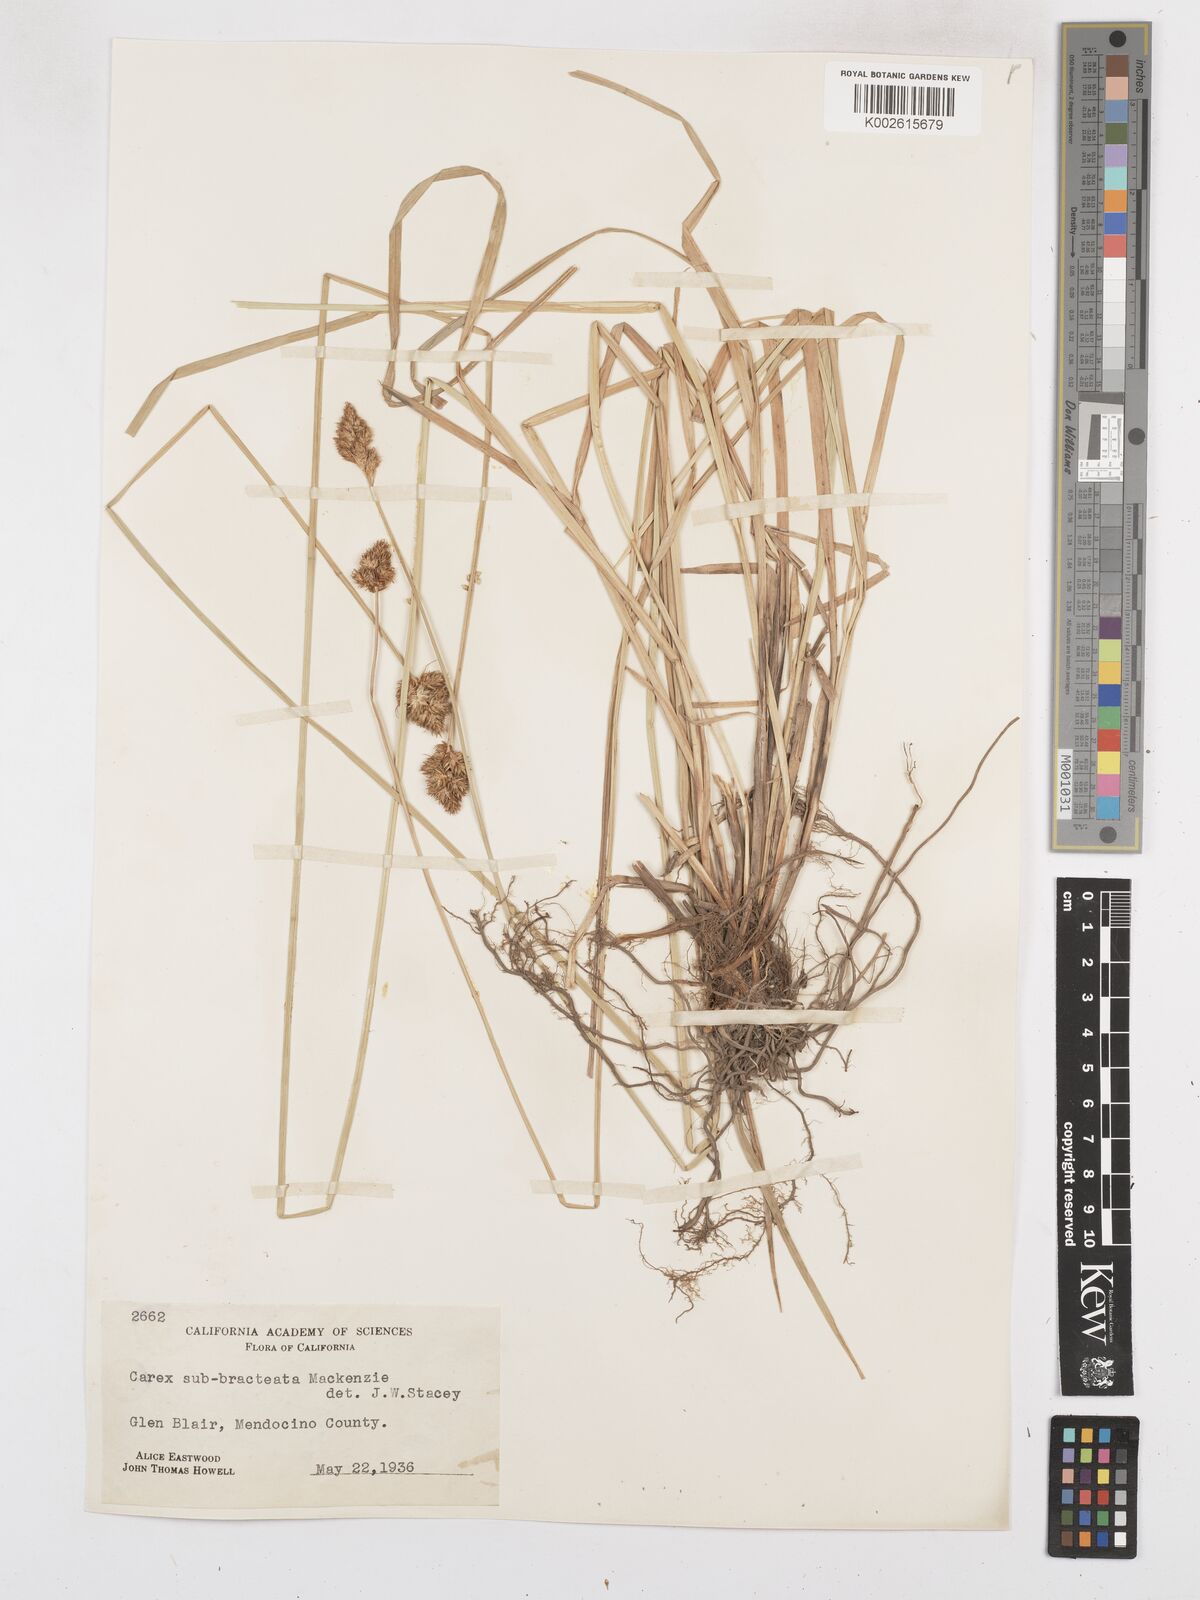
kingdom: Plantae
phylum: Tracheophyta
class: Liliopsida
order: Poales
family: Cyperaceae
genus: Carex
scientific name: Carex subbracteata
